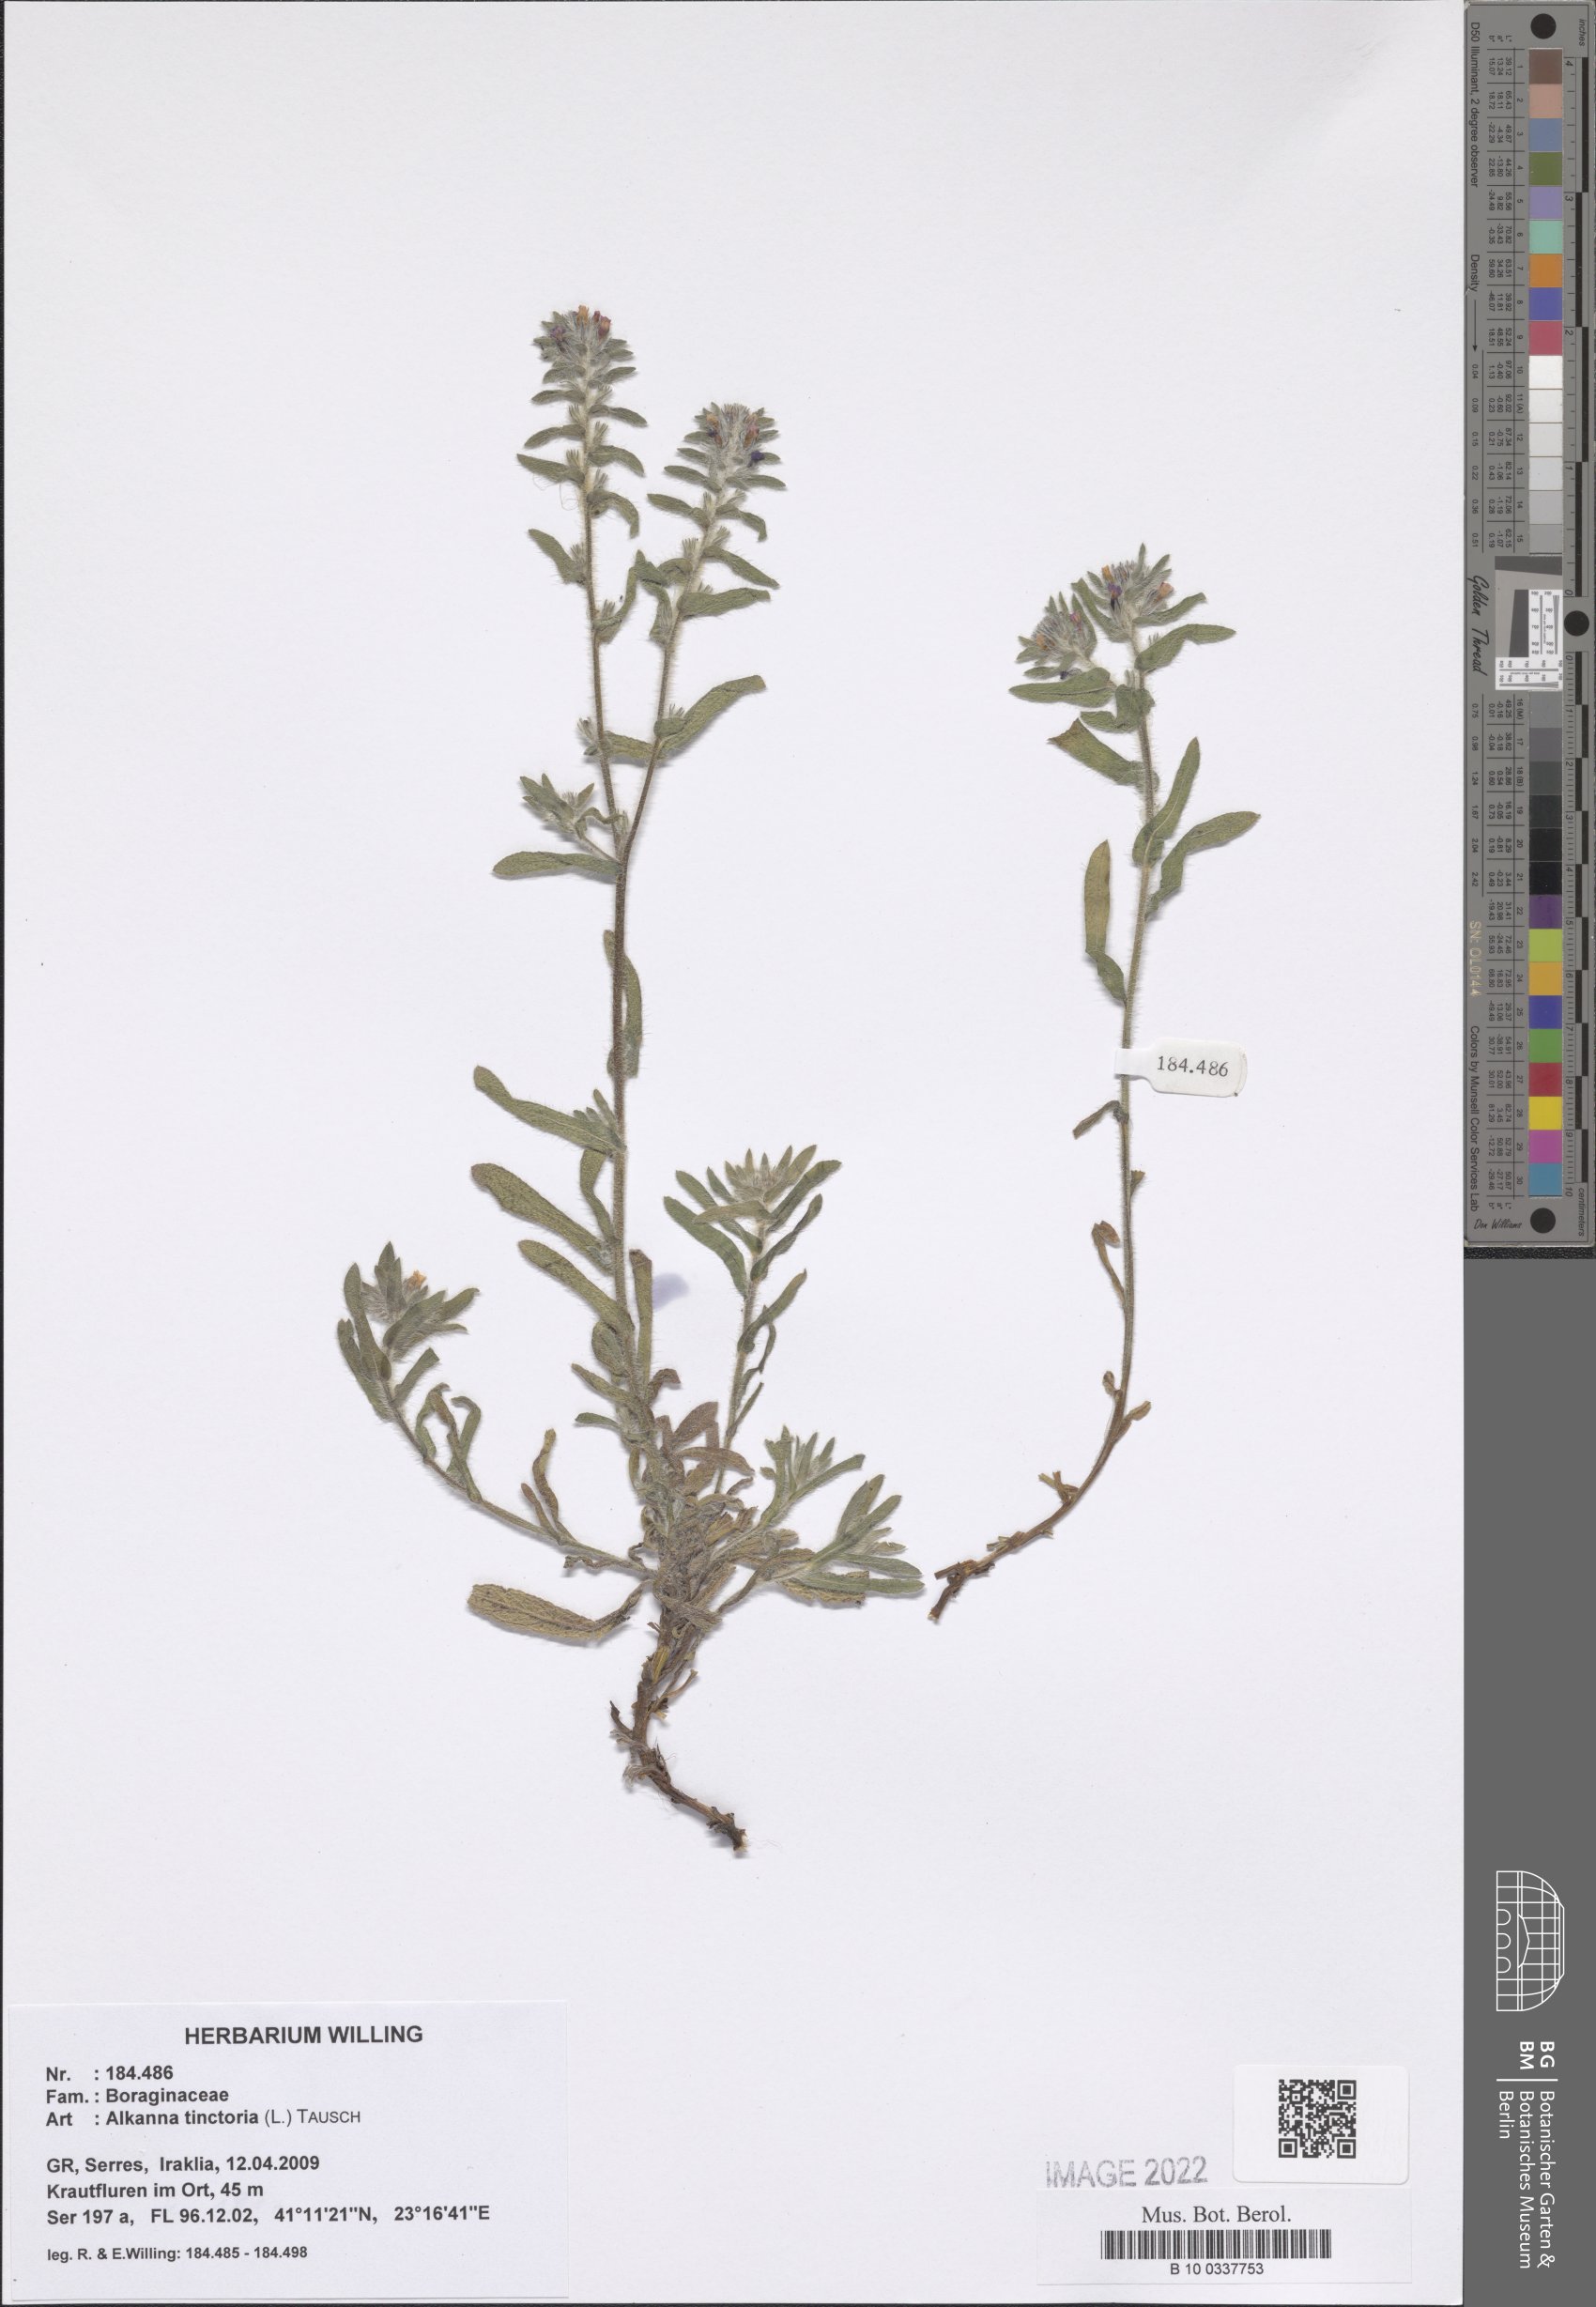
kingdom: Plantae
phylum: Tracheophyta
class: Magnoliopsida
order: Boraginales
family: Boraginaceae
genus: Alkanna
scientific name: Alkanna tinctoria
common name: Dyer's-alkanet
